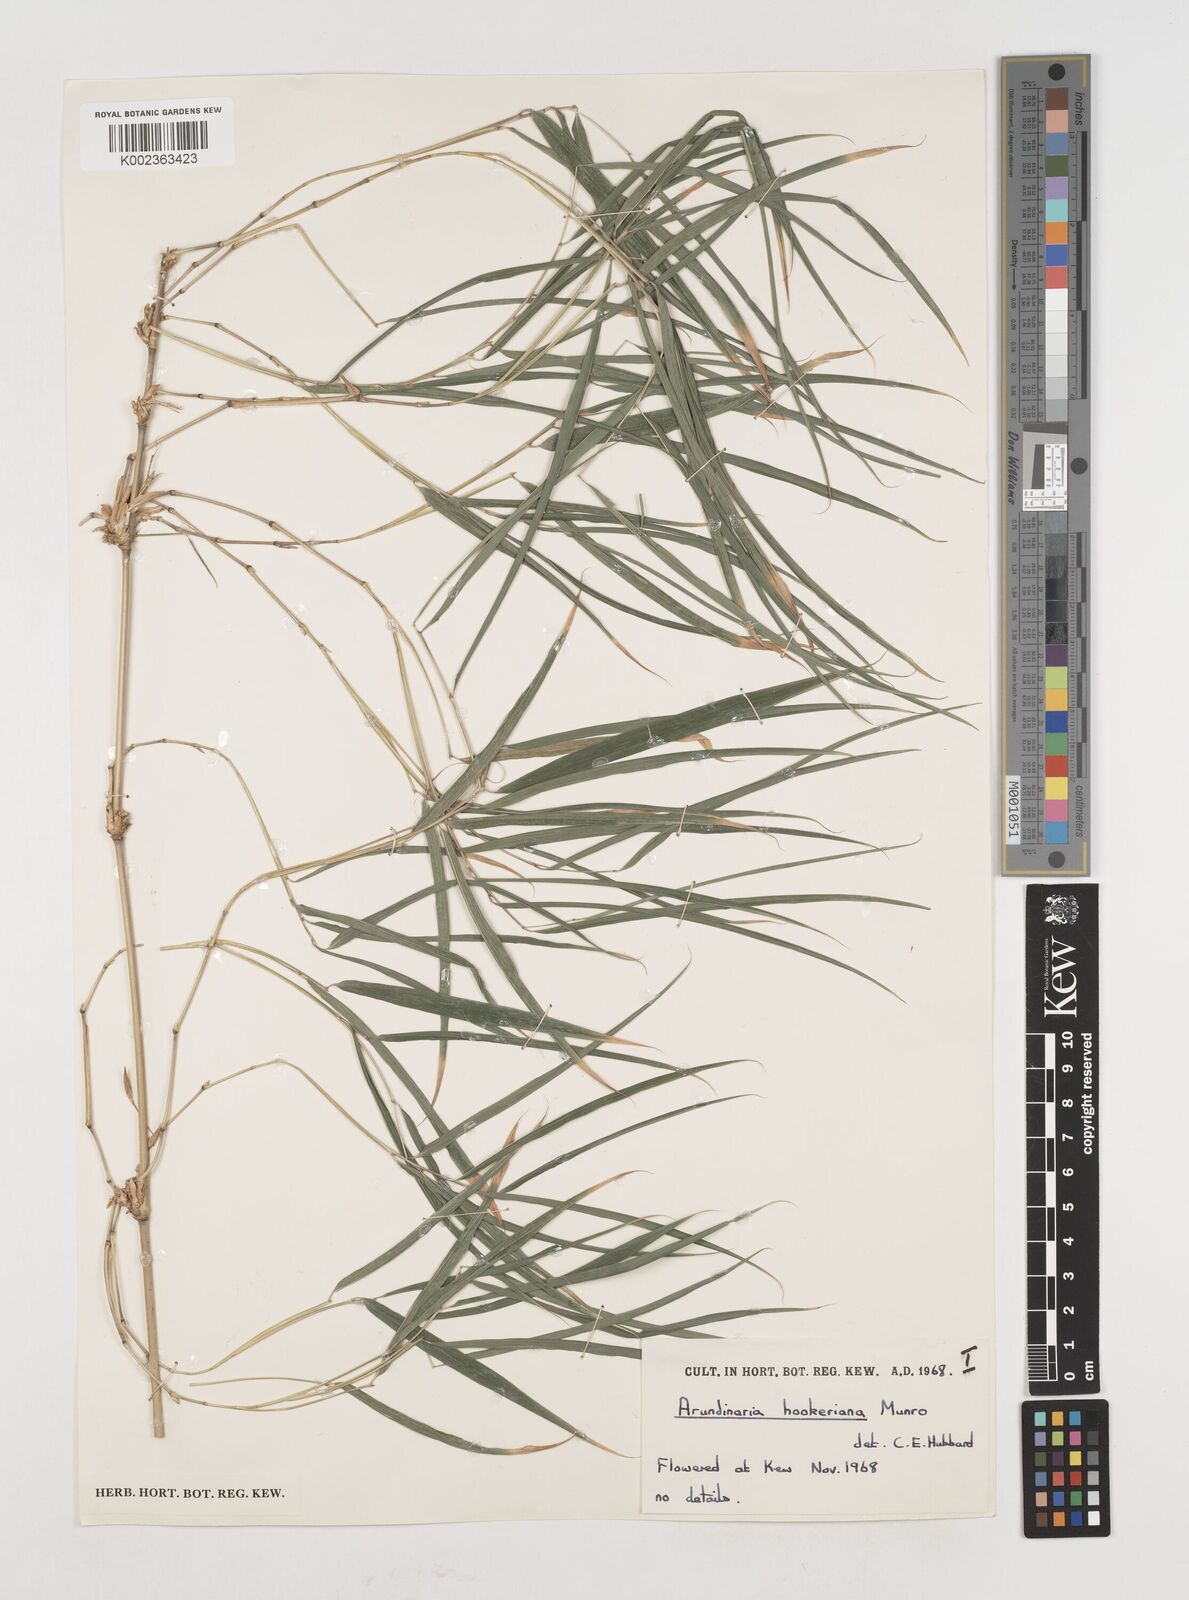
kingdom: Plantae
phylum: Tracheophyta
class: Liliopsida
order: Poales
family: Poaceae
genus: Himalayacalamus
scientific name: Himalayacalamus hookerianus
